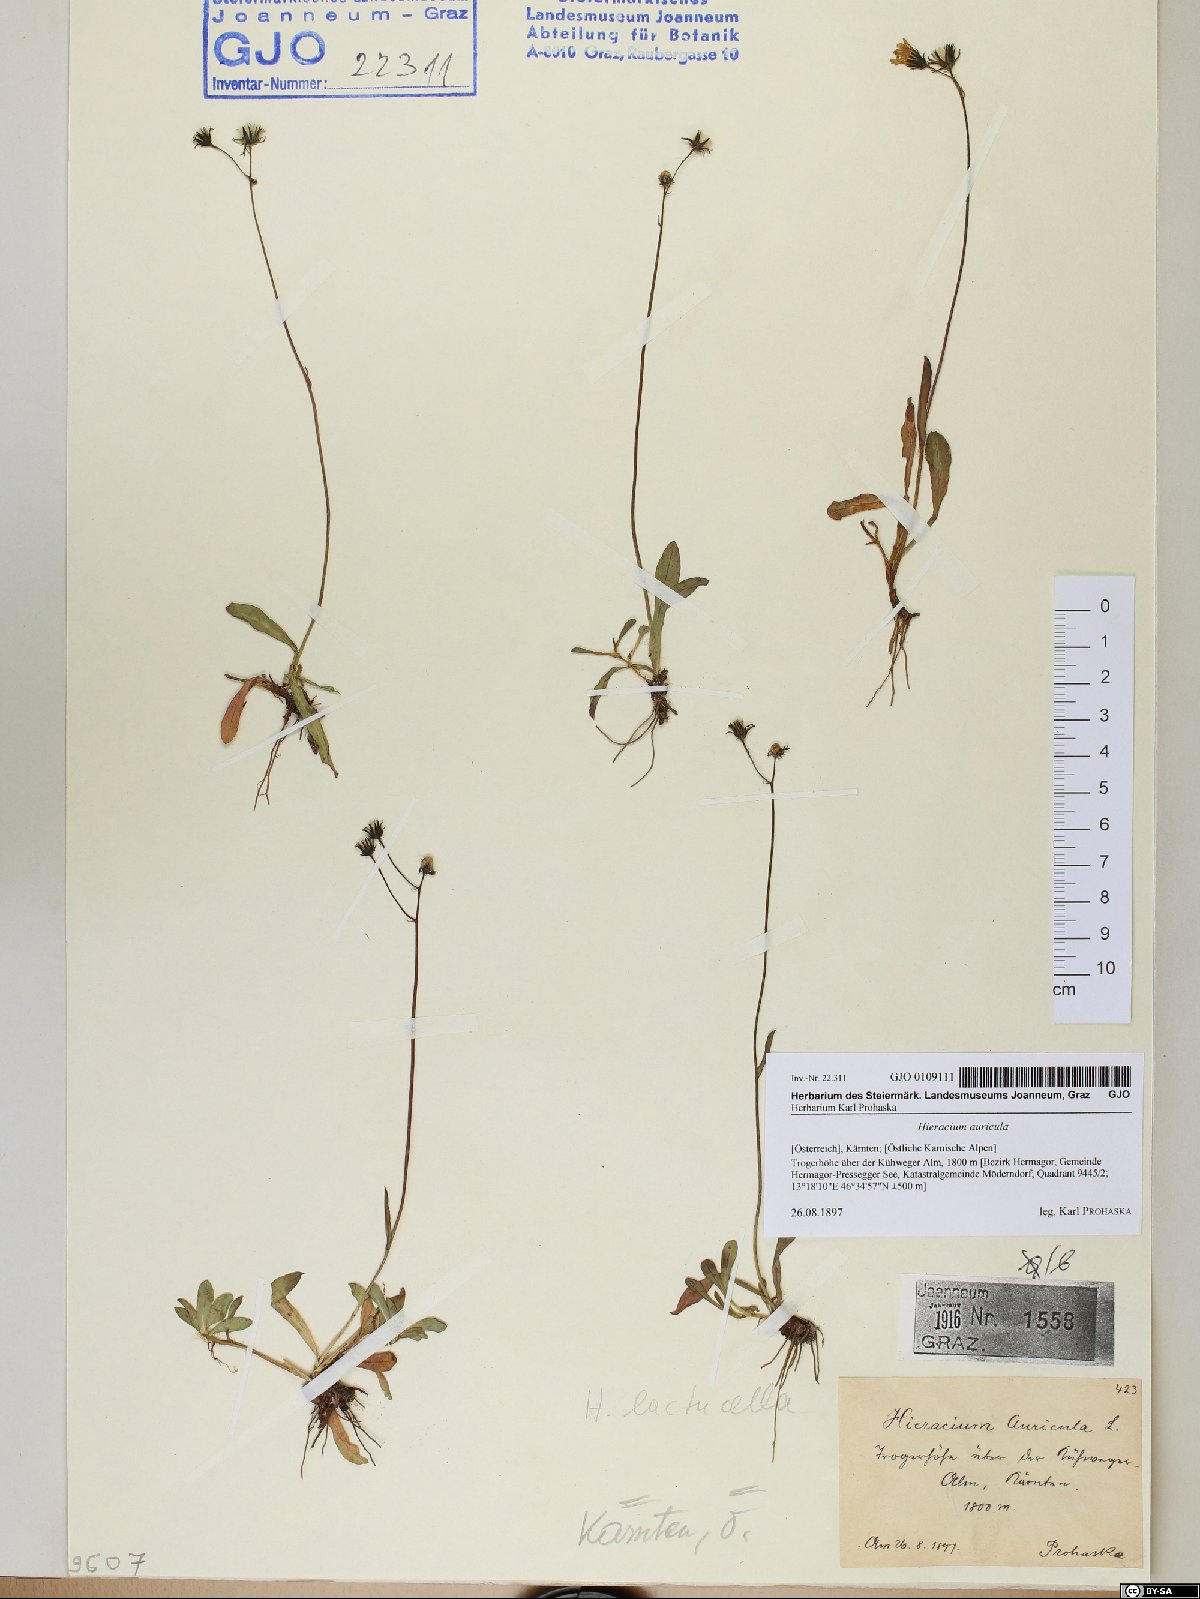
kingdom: Plantae
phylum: Tracheophyta
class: Magnoliopsida
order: Asterales
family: Asteraceae
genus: Hieracium
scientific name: Hieracium auricula
